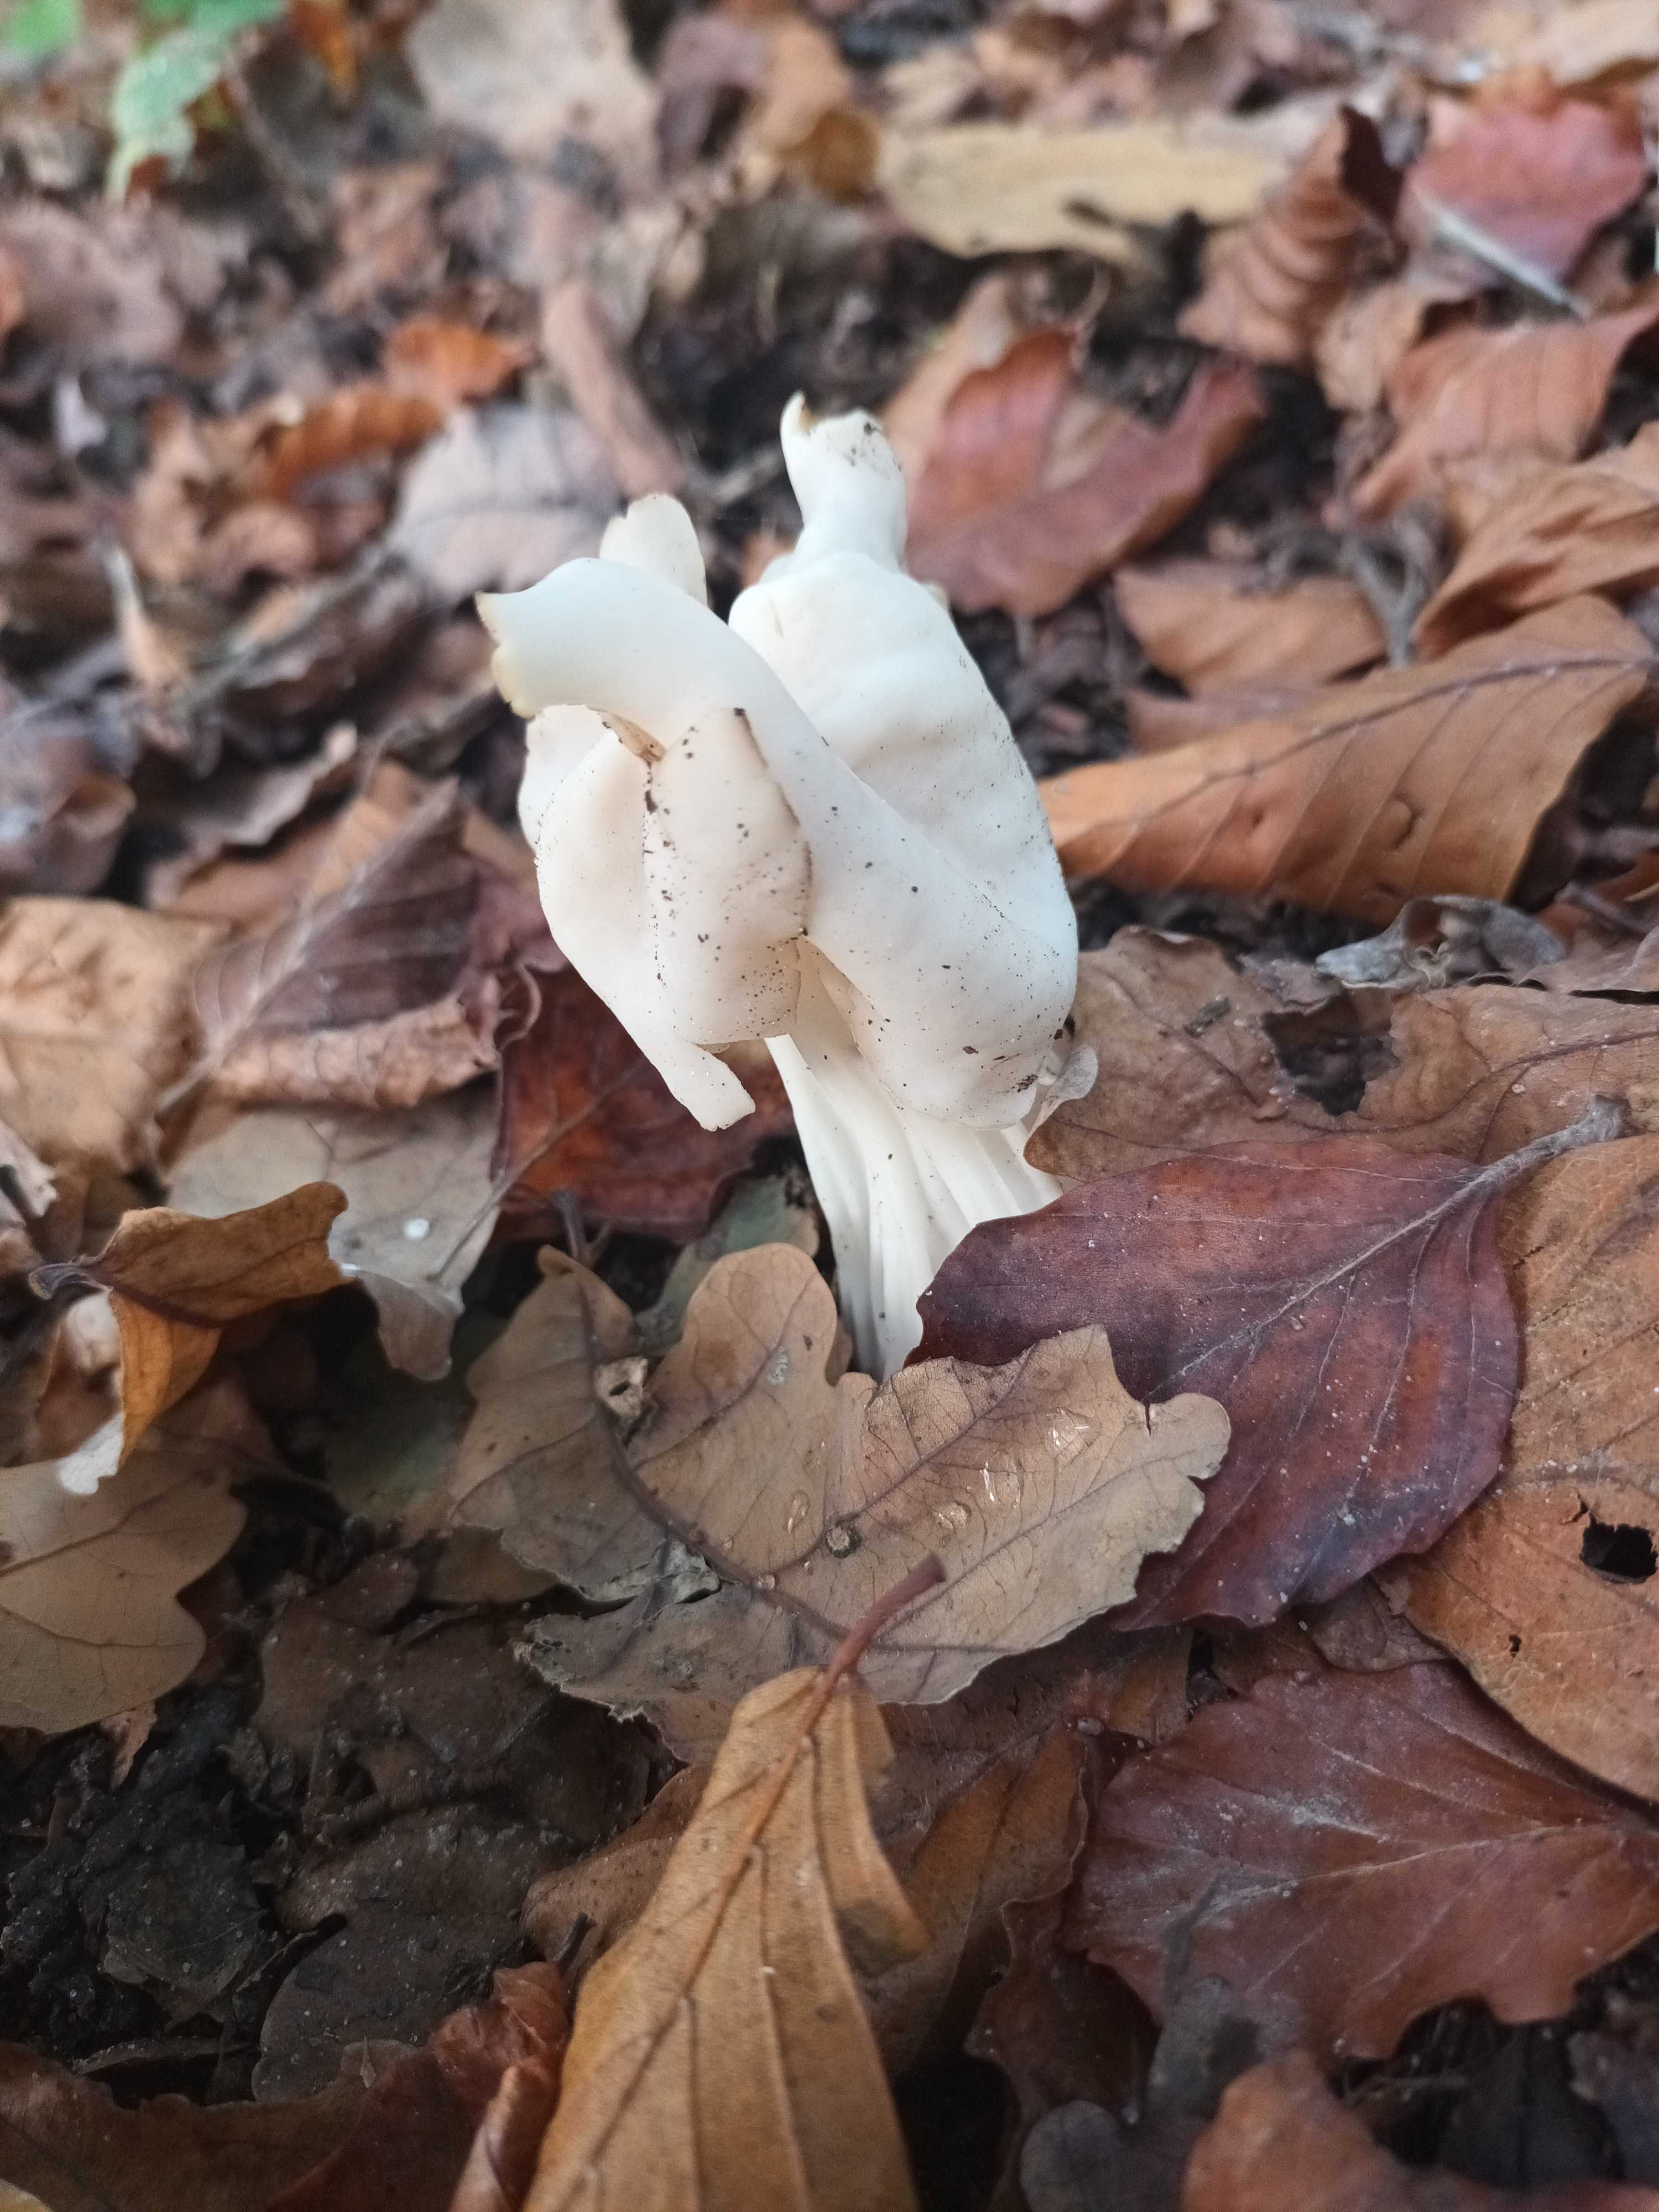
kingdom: Fungi
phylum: Ascomycota
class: Pezizomycetes
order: Pezizales
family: Helvellaceae
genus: Helvella
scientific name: Helvella crispa
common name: kruset foldhat
